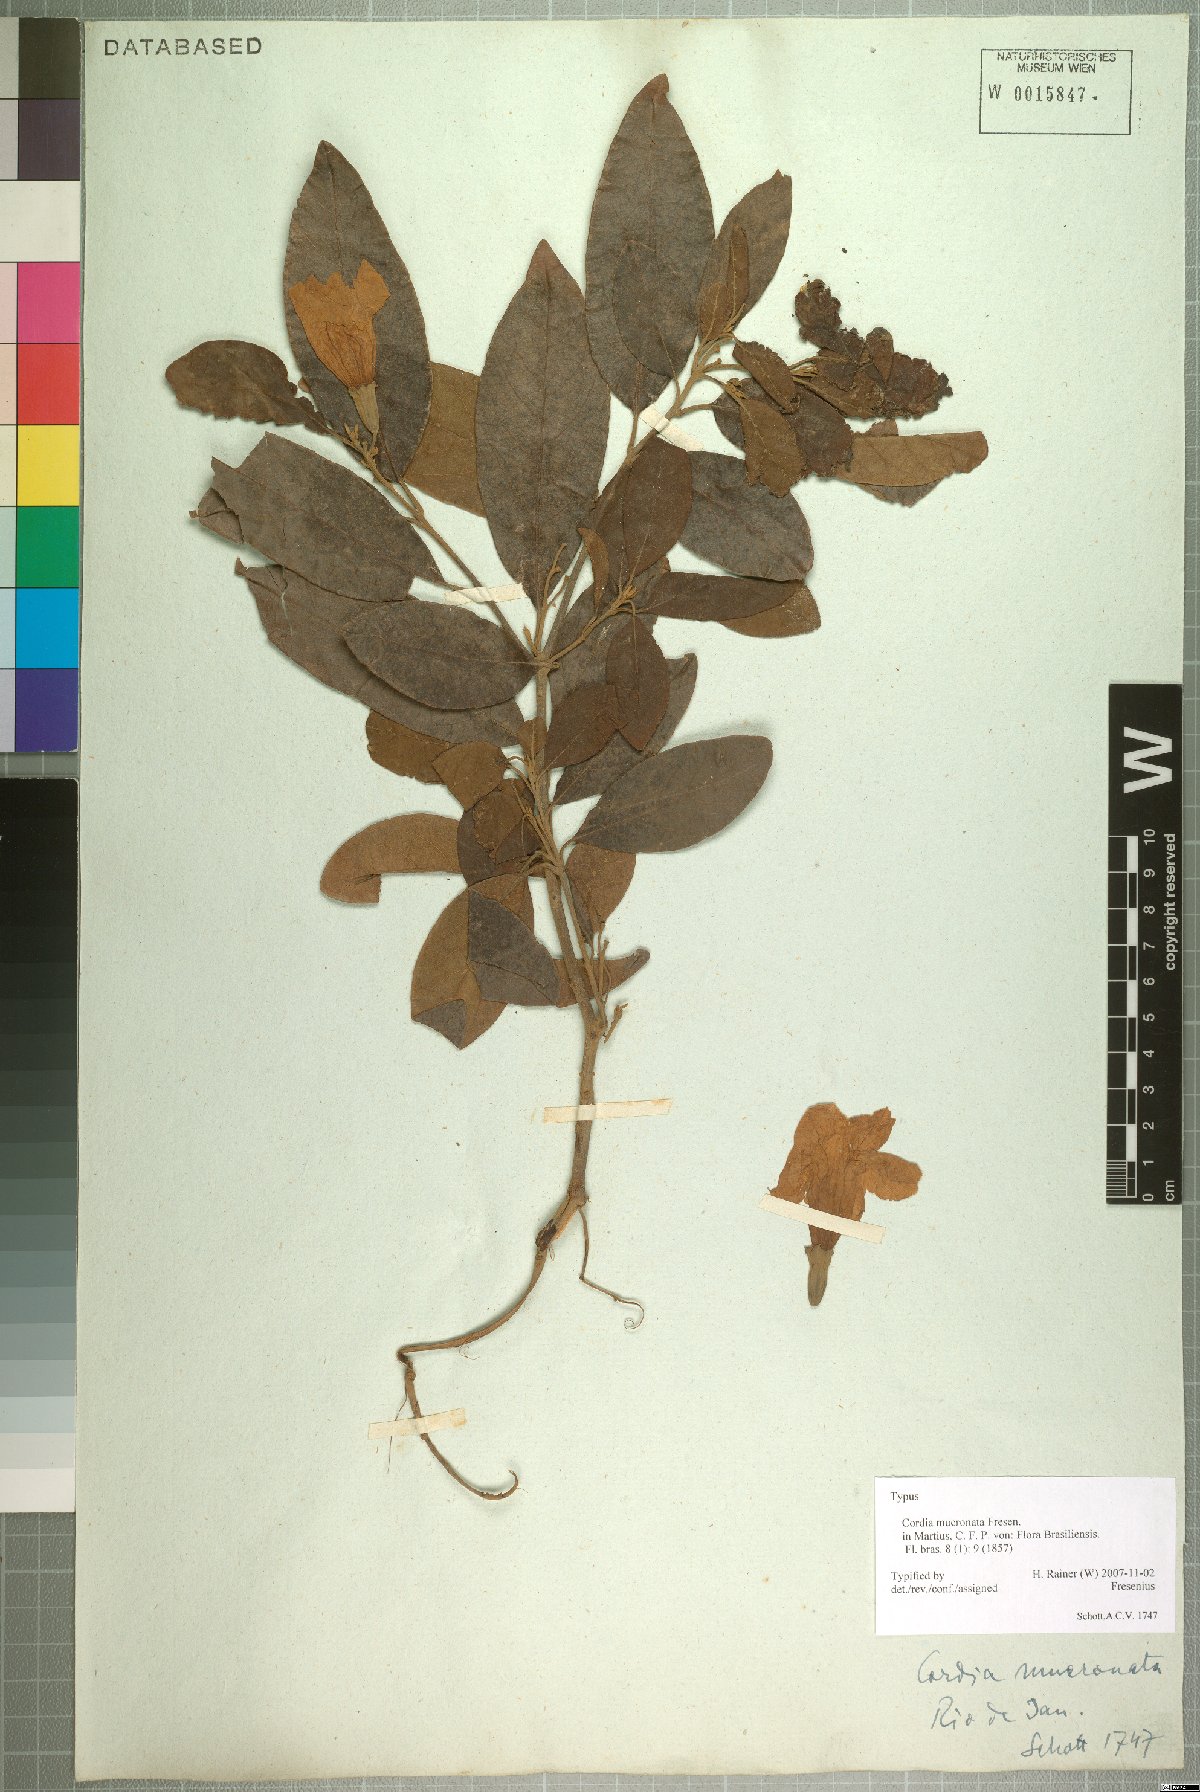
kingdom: Plantae
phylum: Tracheophyta
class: Magnoliopsida
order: Boraginales
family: Cordiaceae
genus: Cordia
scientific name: Cordia aberrans
